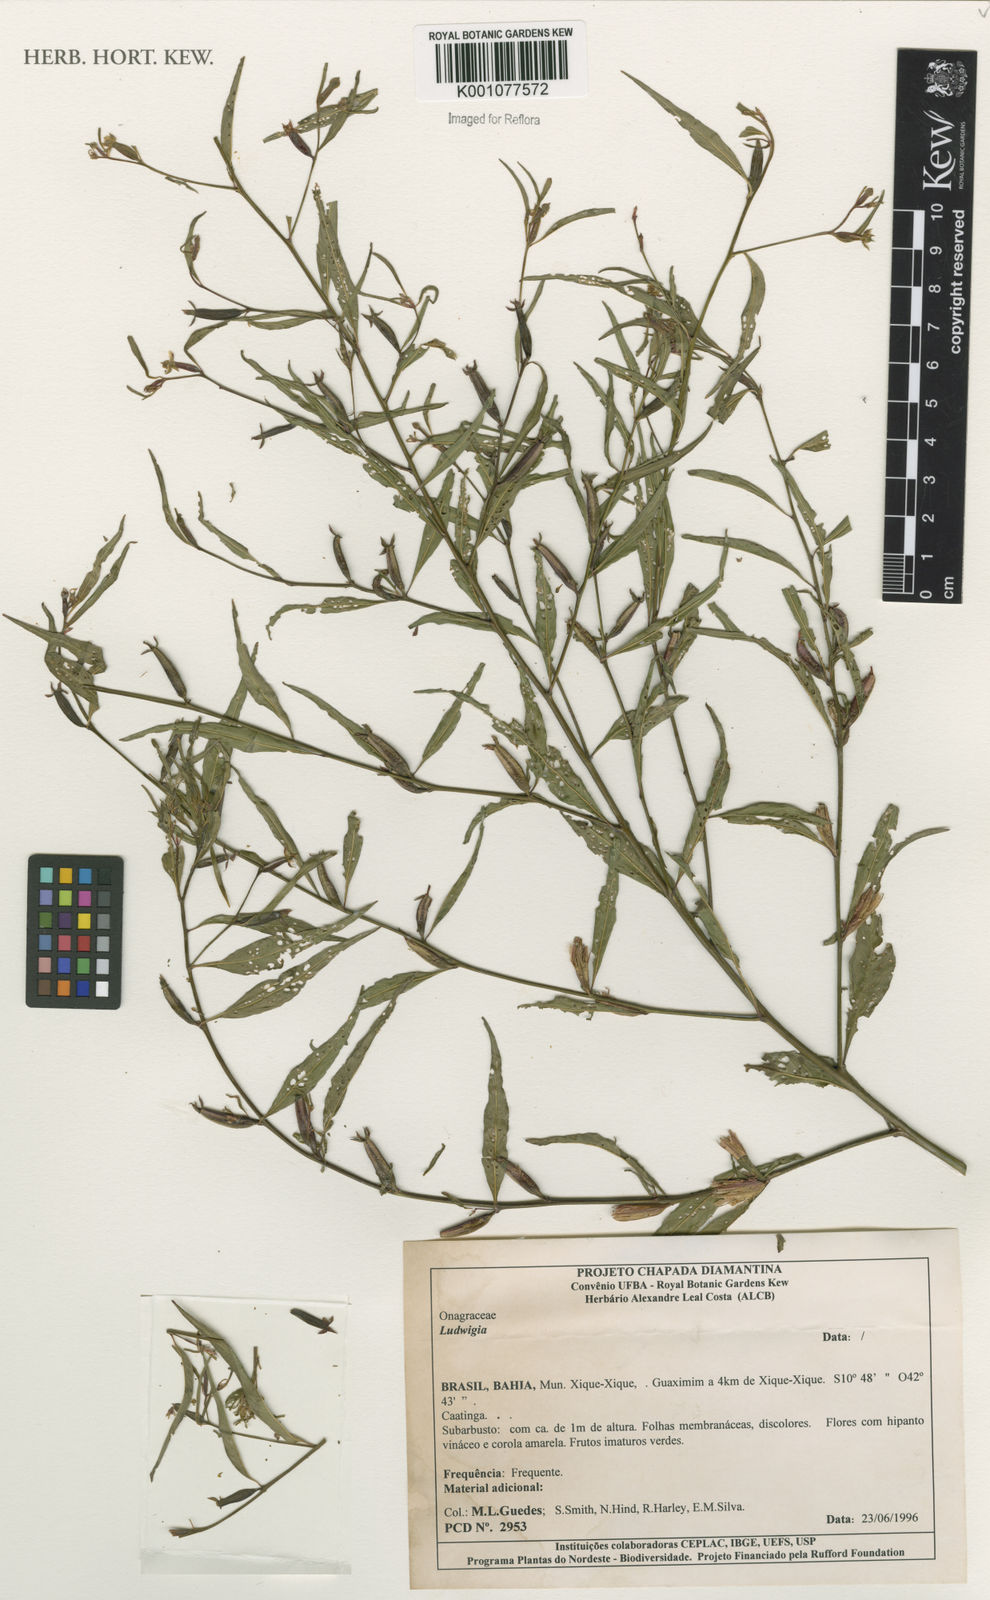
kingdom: Plantae
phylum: Tracheophyta
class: Magnoliopsida
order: Myrtales
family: Onagraceae
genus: Ludwigia
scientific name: Ludwigia
